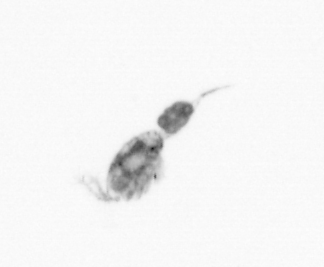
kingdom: Animalia
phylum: Arthropoda
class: Copepoda
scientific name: Copepoda
